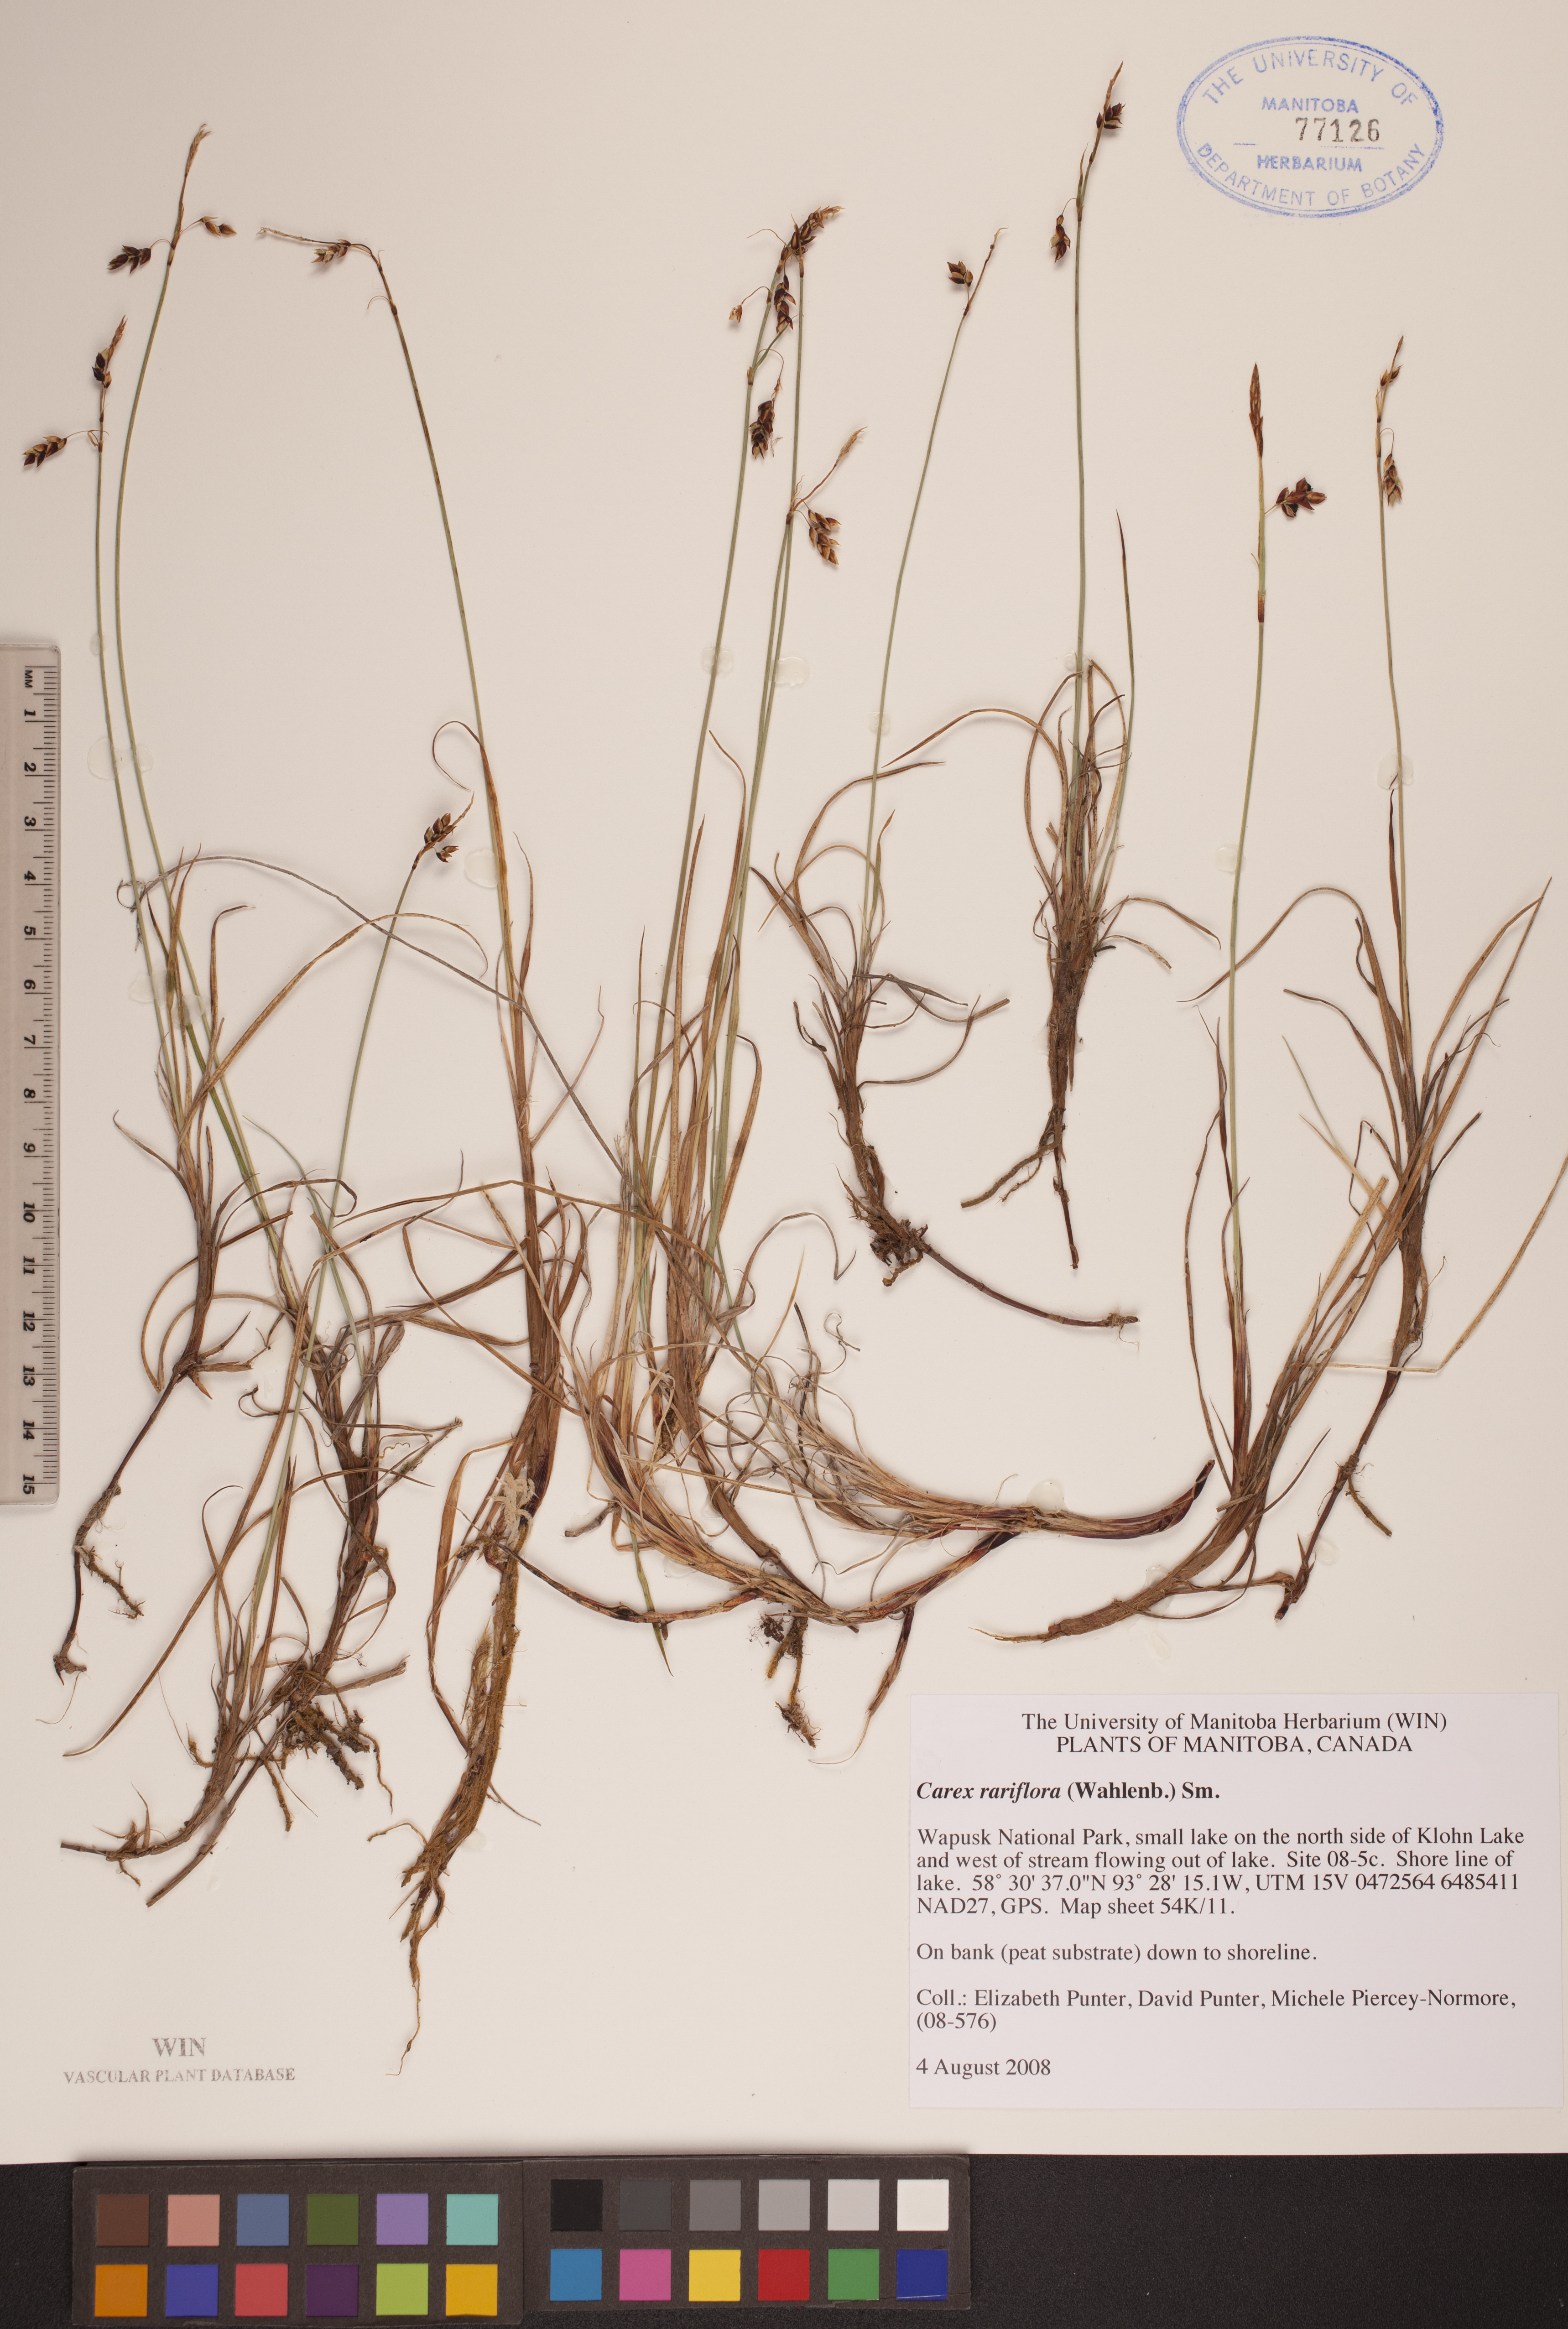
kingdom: Plantae
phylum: Tracheophyta
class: Liliopsida
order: Poales
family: Cyperaceae
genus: Carex
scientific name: Carex rariflora
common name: Loose-flowered alpine sedge
